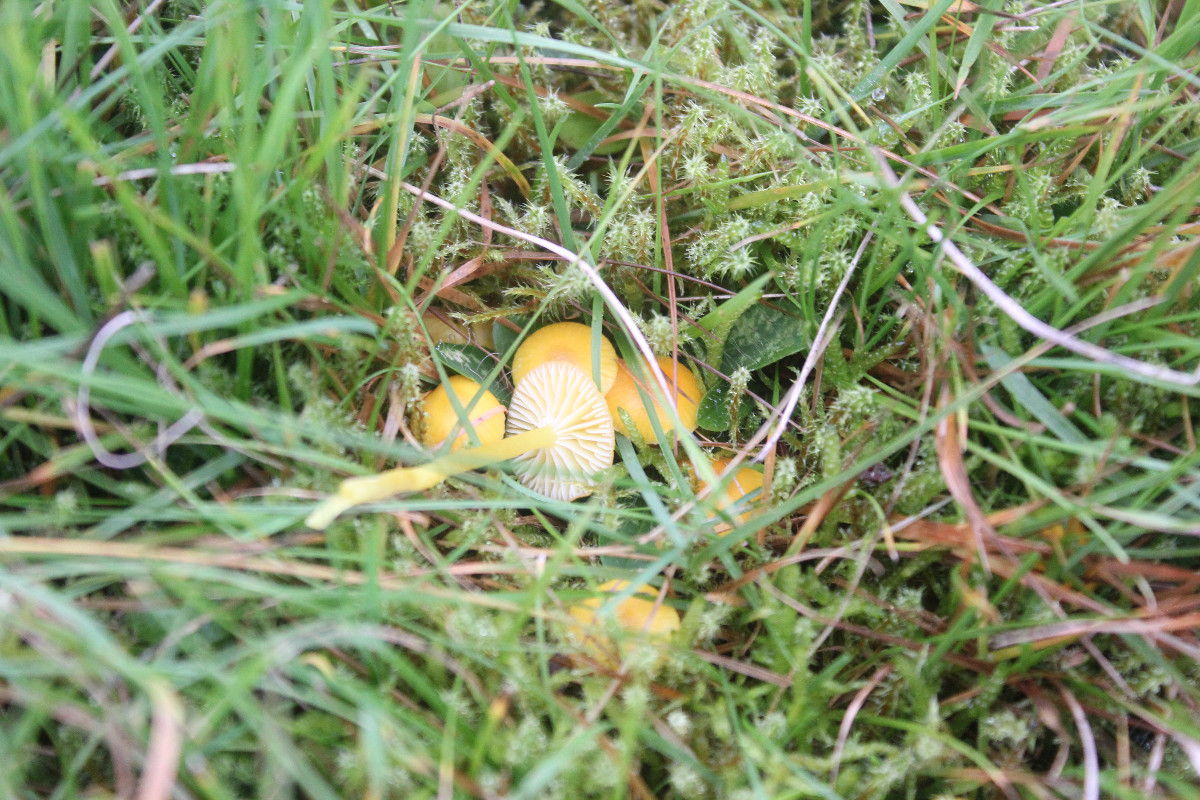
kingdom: Fungi
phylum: Basidiomycota
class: Agaricomycetes
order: Agaricales
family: Hygrophoraceae
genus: Hygrocybe
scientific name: Hygrocybe ceracea
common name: voksgul vokshat
